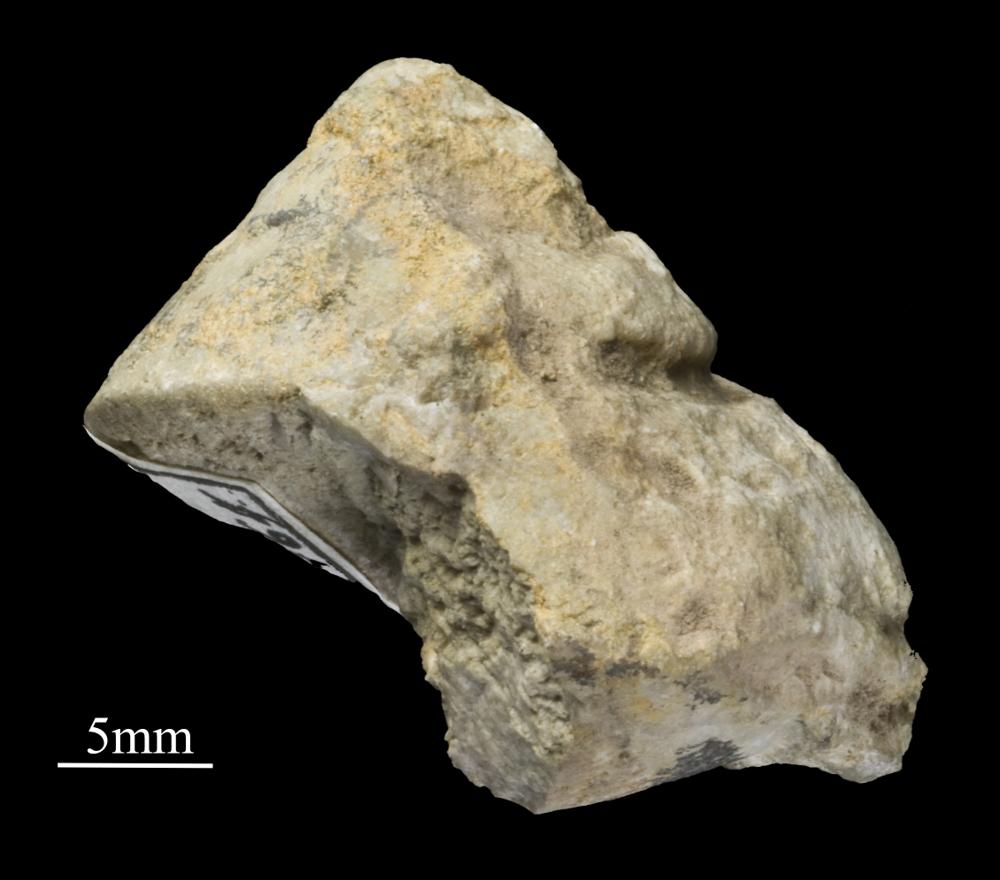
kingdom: Animalia
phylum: Mollusca
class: Gastropoda
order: Trochida
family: Trochidae
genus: Trochus
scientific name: Trochus ellipticus
